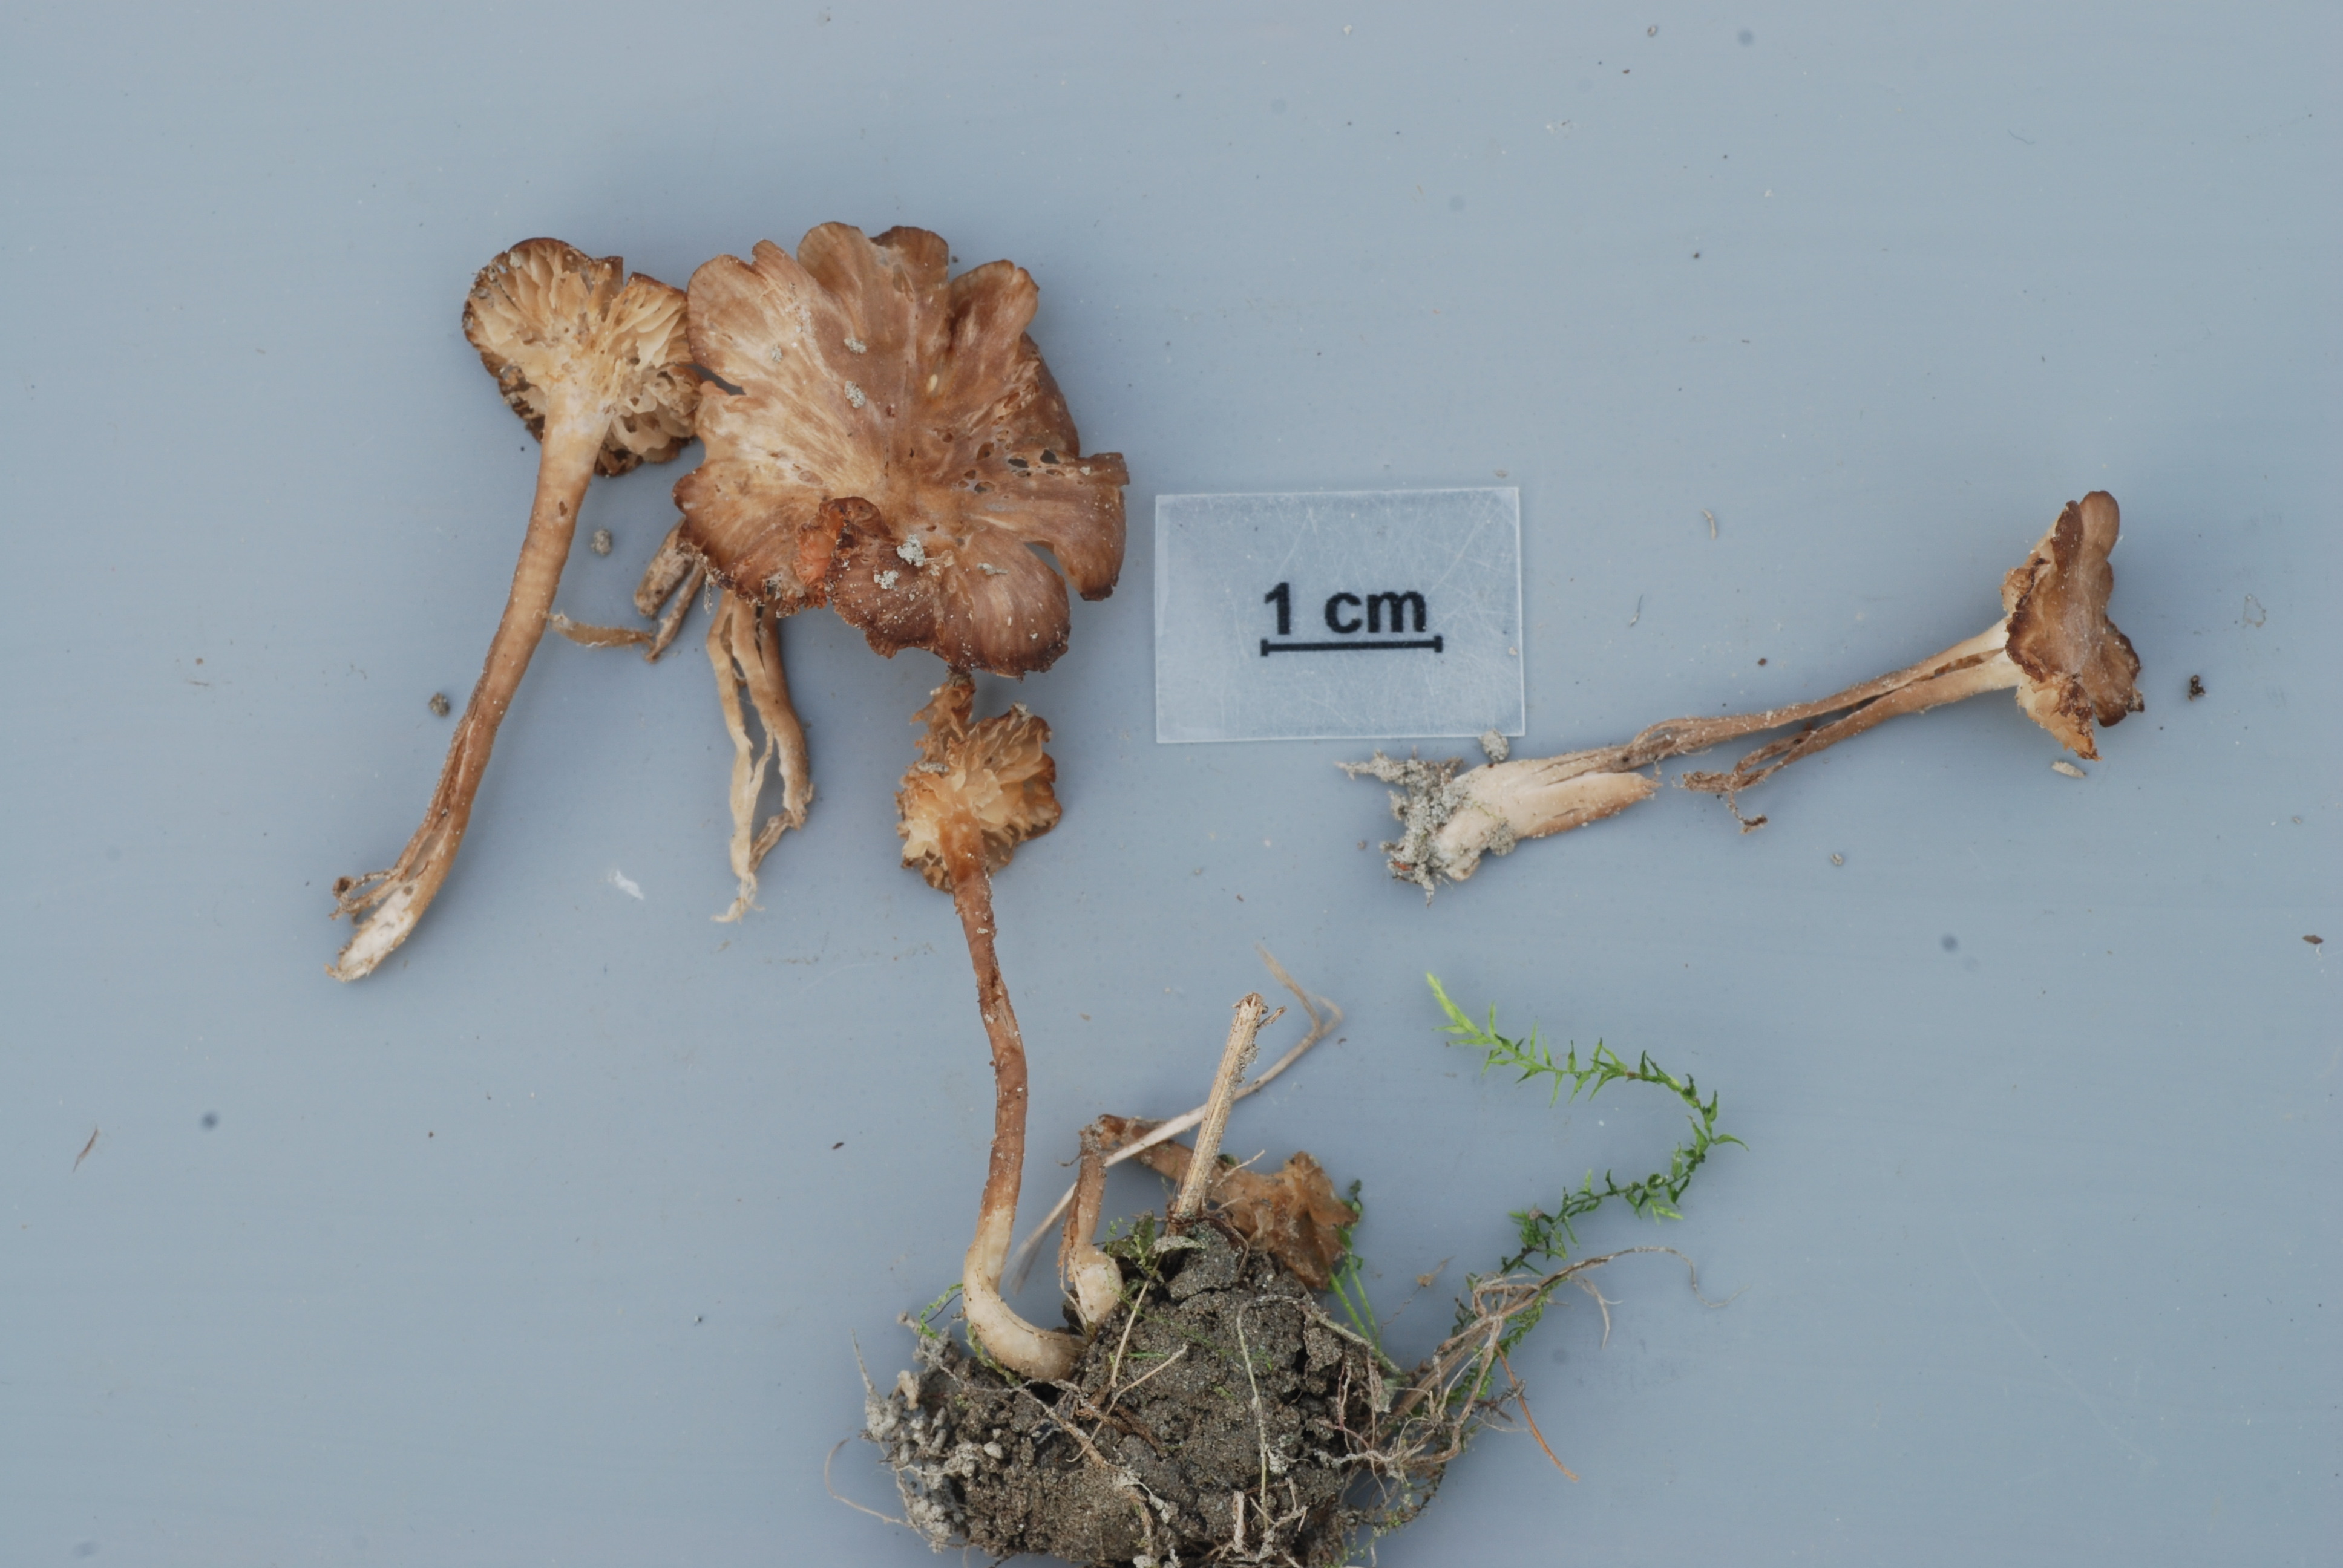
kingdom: Fungi
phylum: Basidiomycota
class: Agaricomycetes
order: Agaricales
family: Entolomataceae
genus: Entoloma
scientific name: Entoloma politum
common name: Nitrous pinkgill
